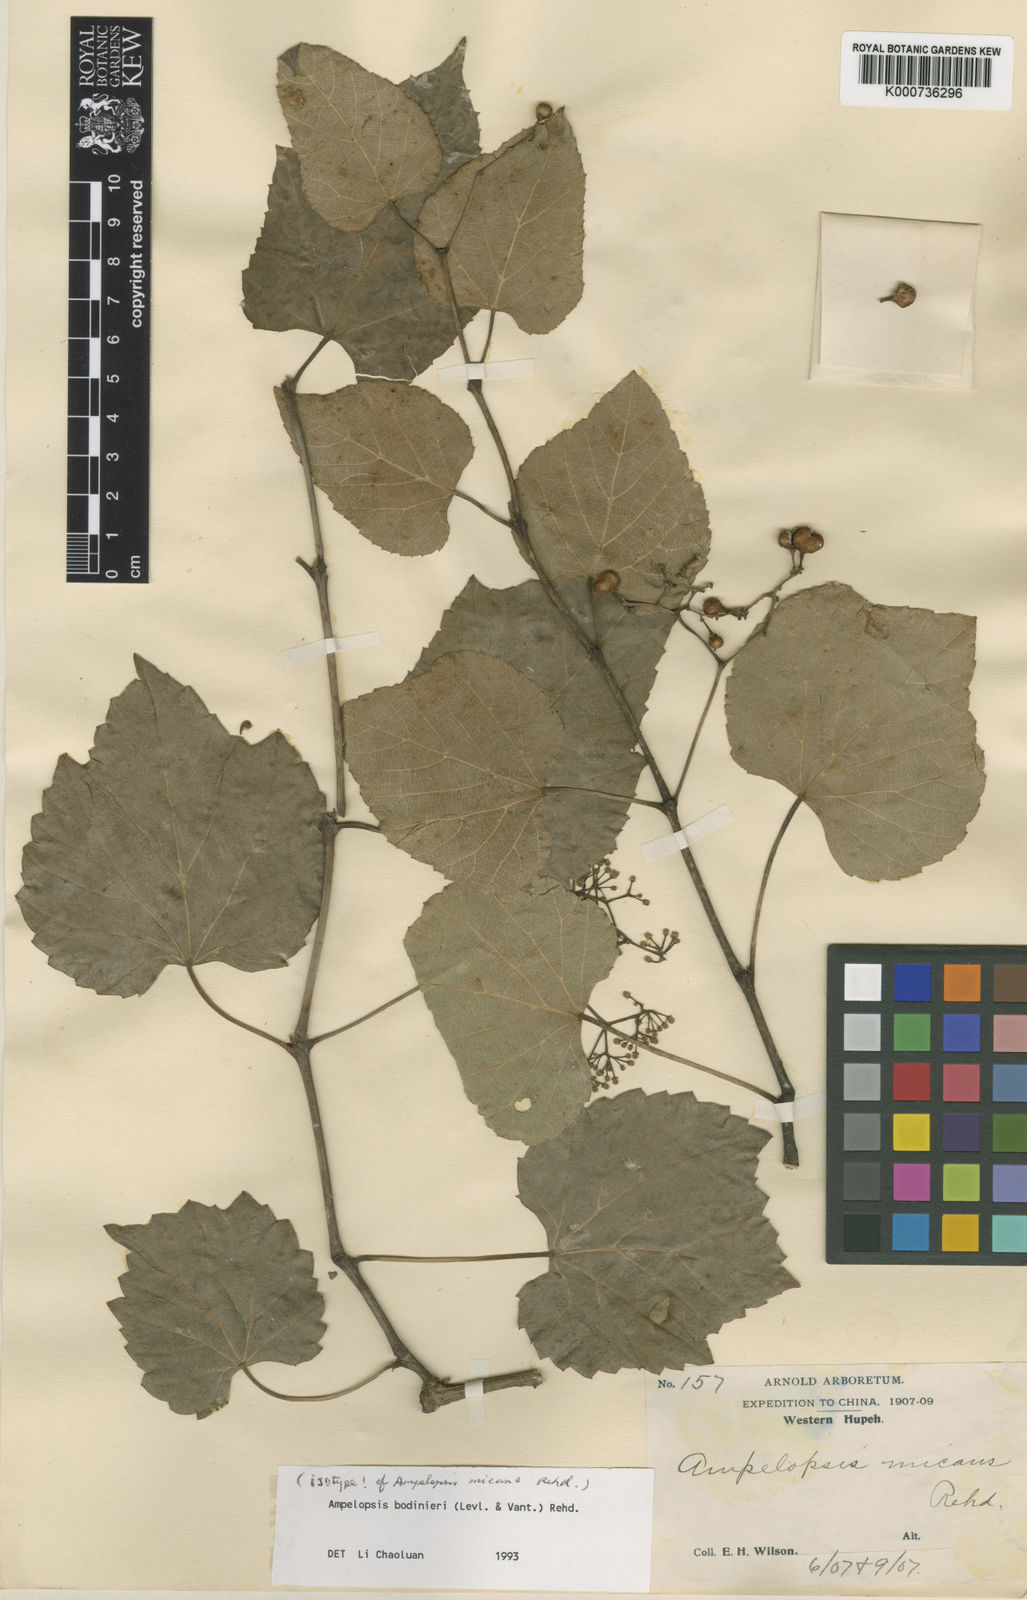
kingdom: Plantae
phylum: Tracheophyta
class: Magnoliopsida
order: Vitales
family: Vitaceae
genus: Ampelopsis
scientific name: Ampelopsis
